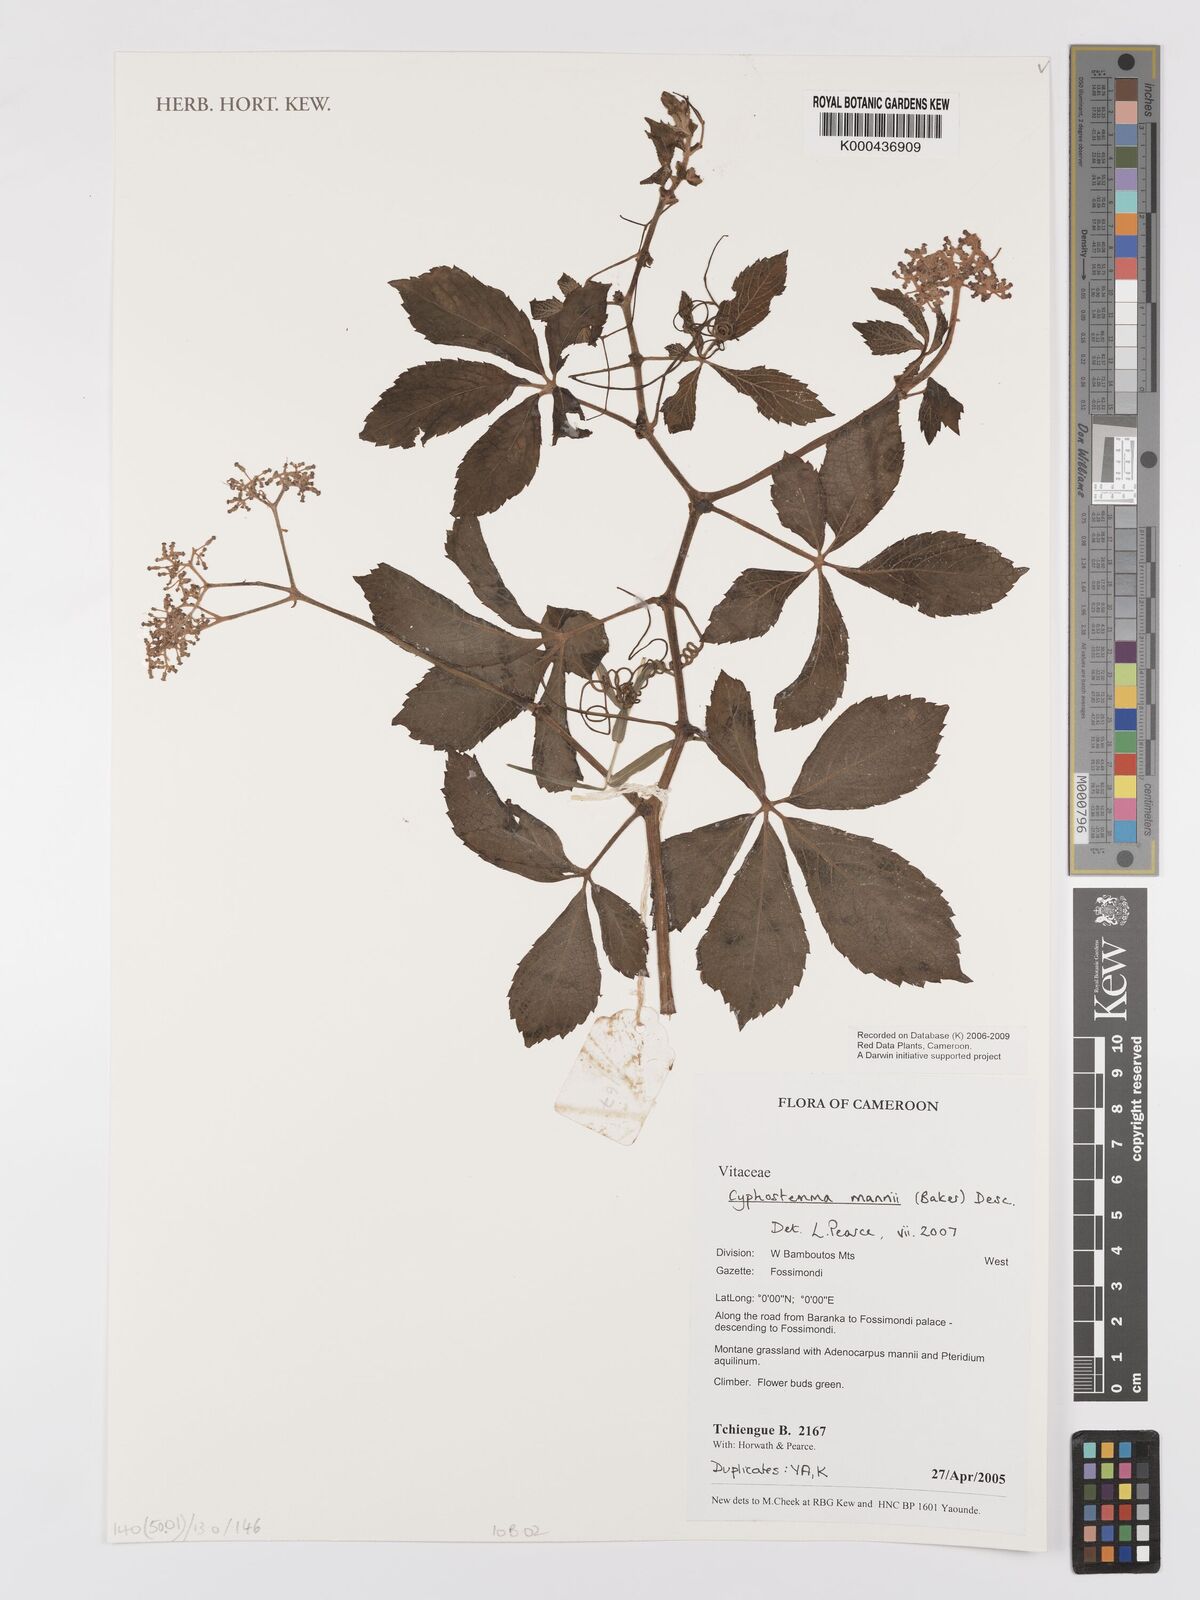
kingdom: Plantae
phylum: Tracheophyta
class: Magnoliopsida
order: Vitales
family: Vitaceae
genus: Cyphostemma
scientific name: Cyphostemma mannii
